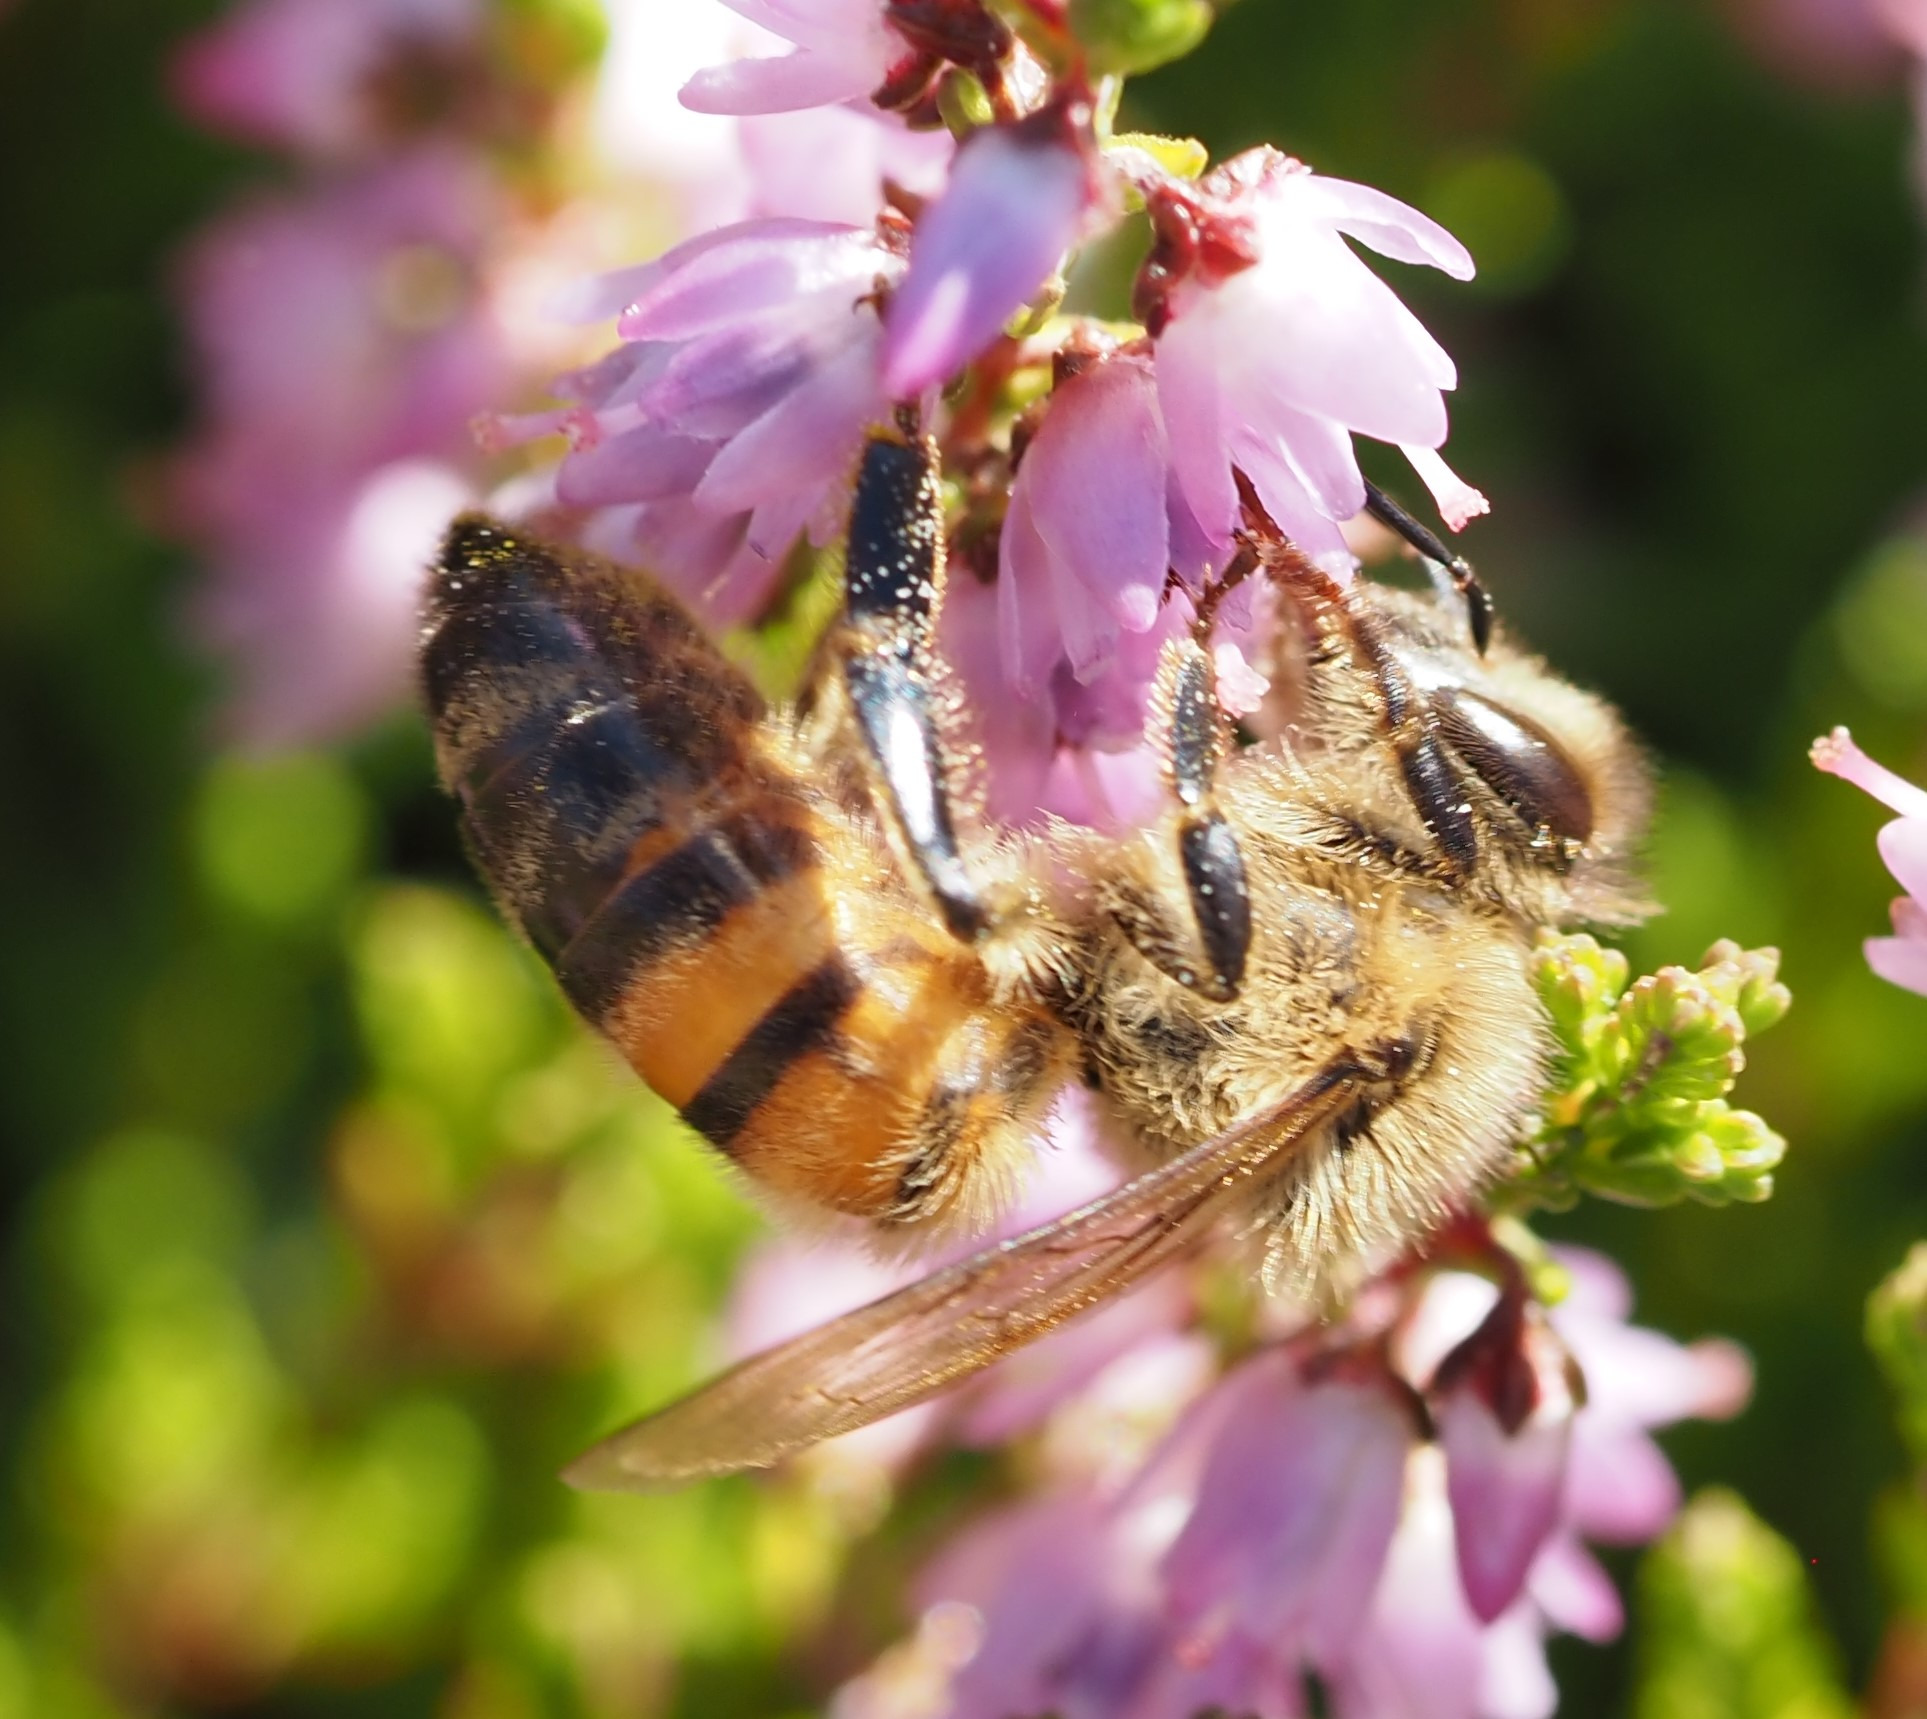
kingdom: Animalia
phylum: Arthropoda
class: Insecta
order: Hymenoptera
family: Apidae
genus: Apis
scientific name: Apis mellifera
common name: Honningbi
